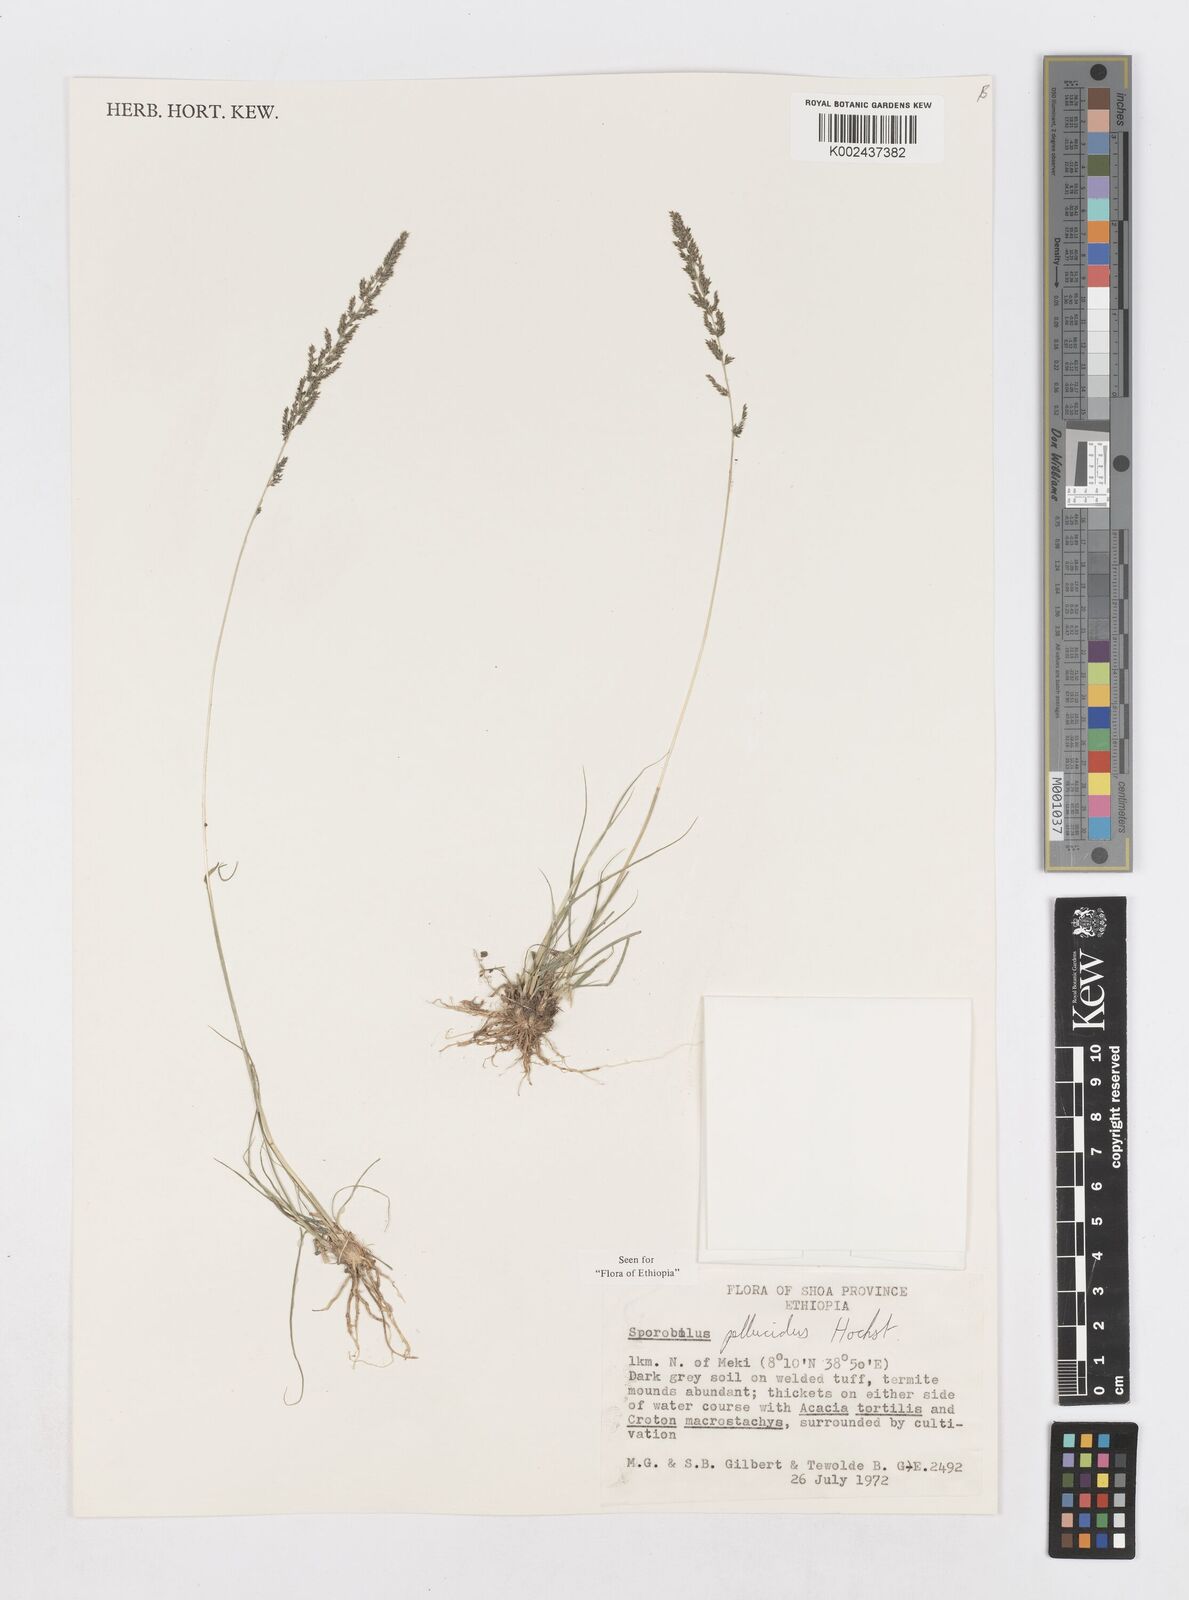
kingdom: Plantae
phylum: Tracheophyta
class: Liliopsida
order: Poales
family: Poaceae
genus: Sporobolus
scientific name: Sporobolus pellucidus
